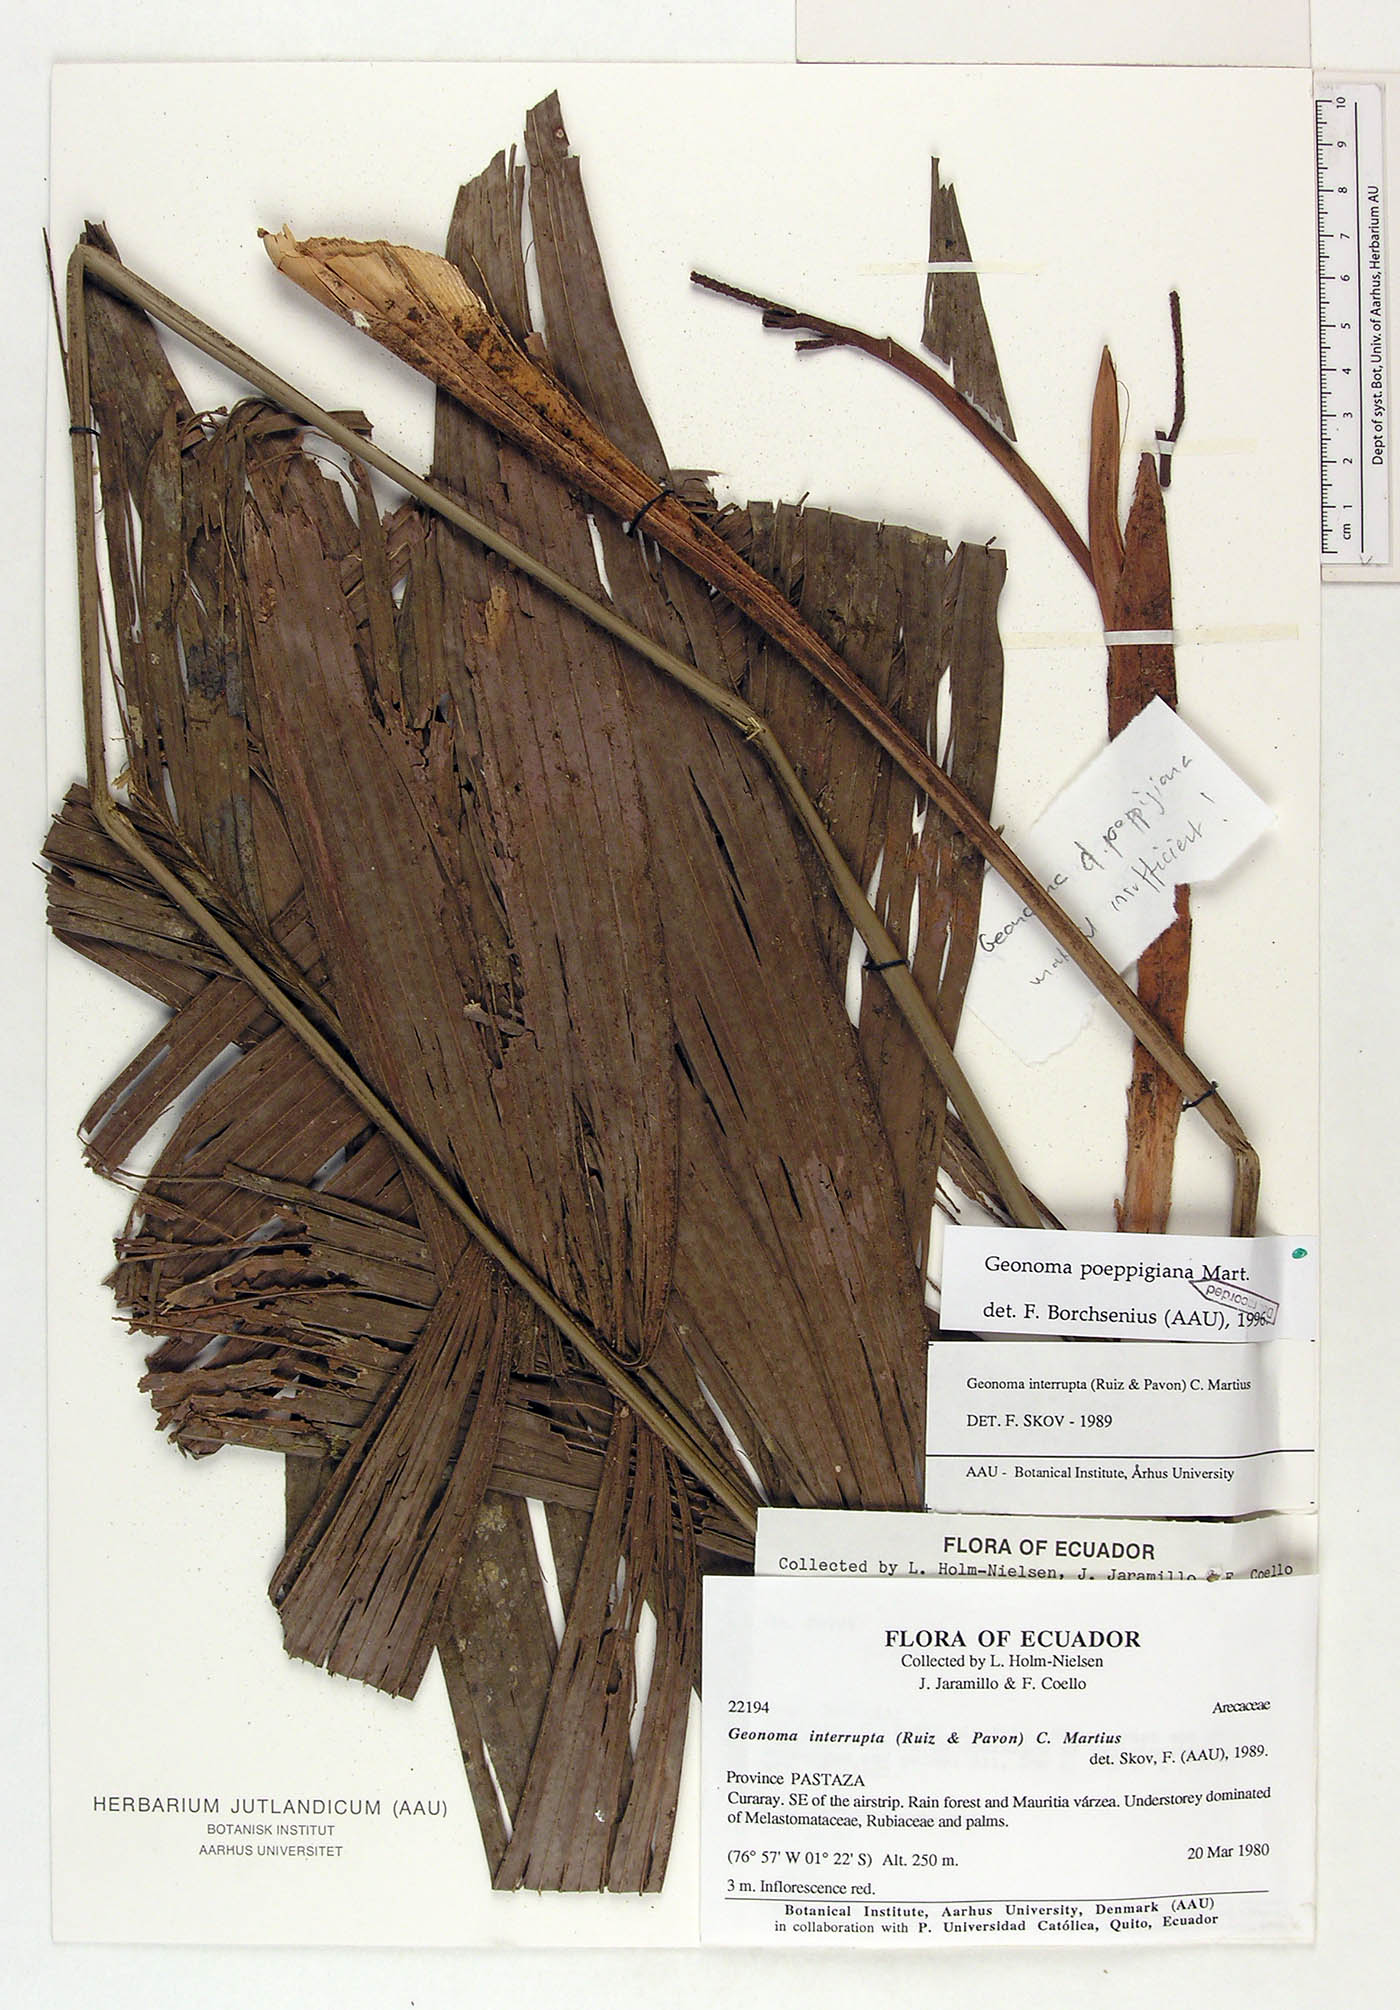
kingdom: Plantae
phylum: Tracheophyta
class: Liliopsida
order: Arecales
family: Arecaceae
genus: Geonoma
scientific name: Geonoma poeppigiana
